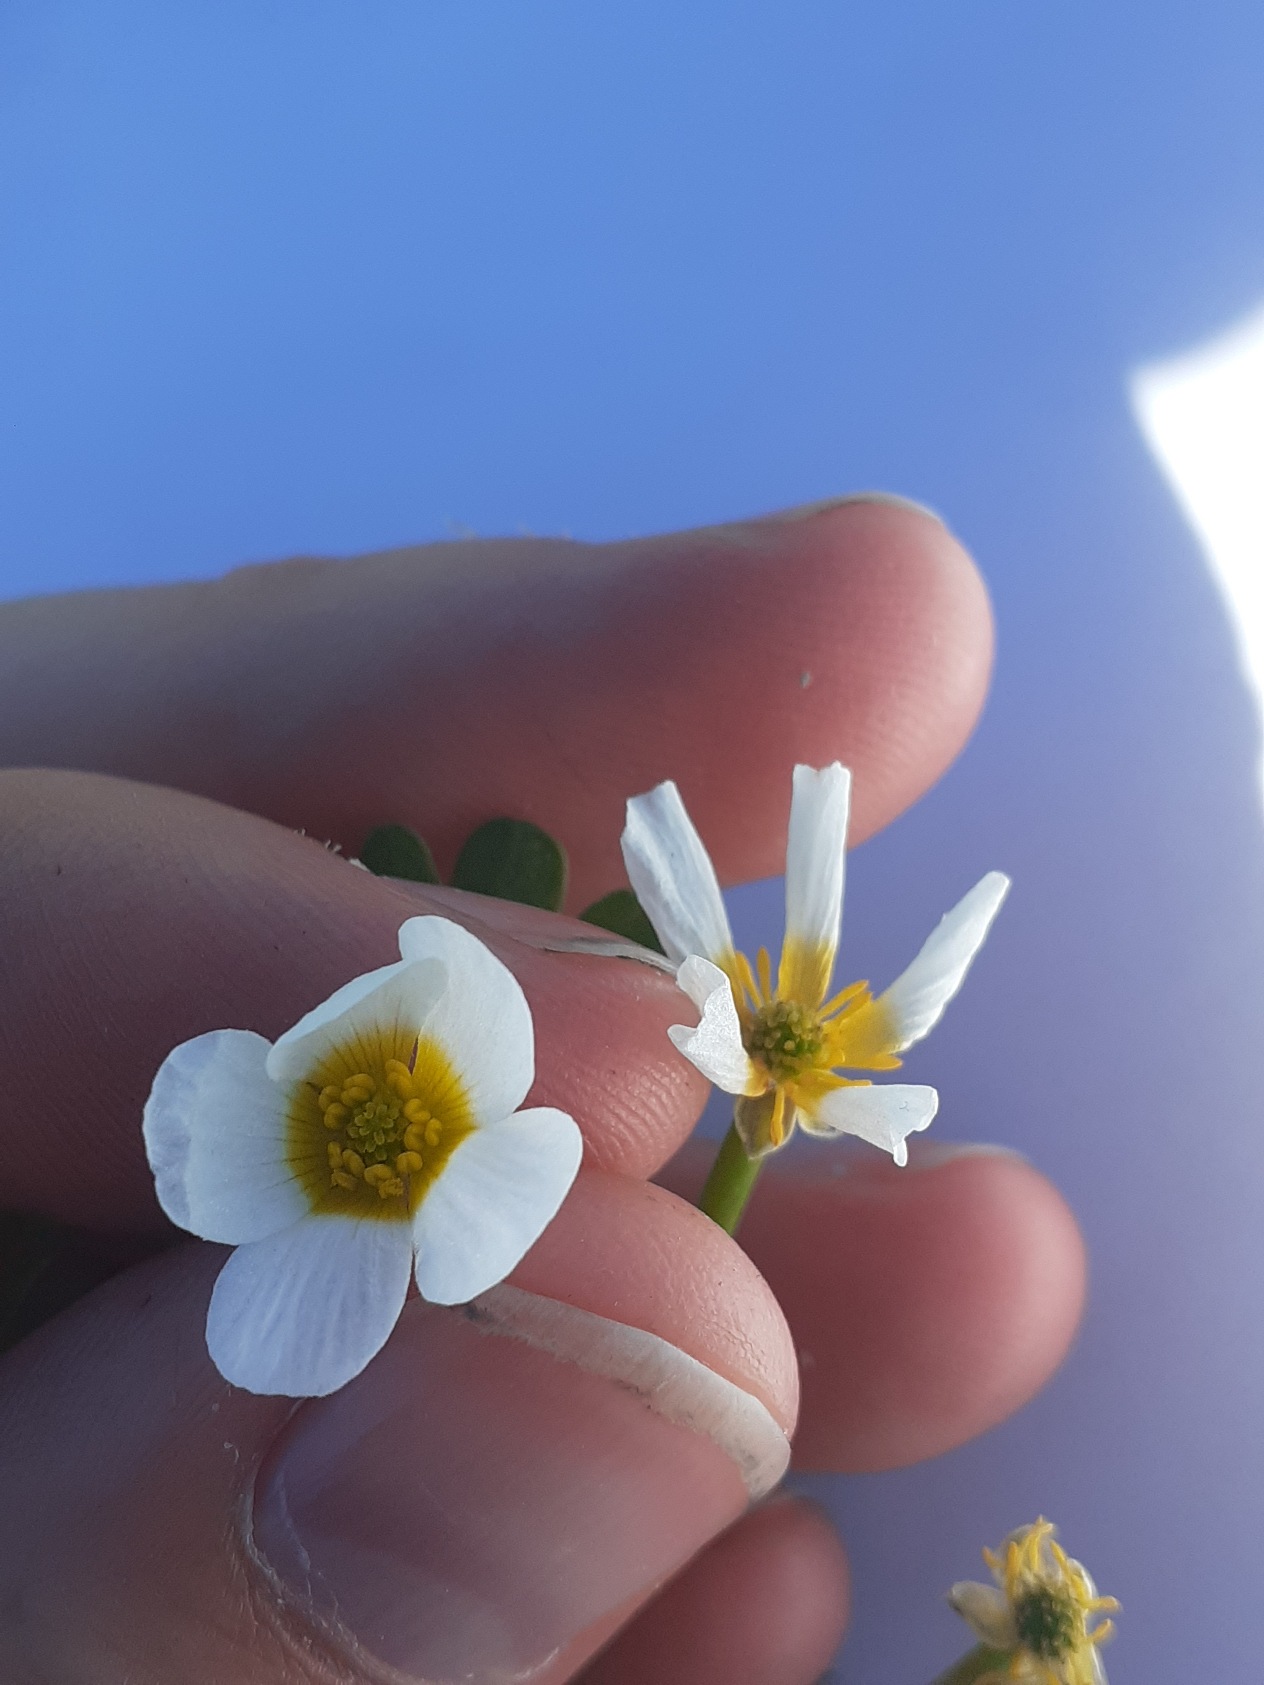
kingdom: Plantae
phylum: Tracheophyta
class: Magnoliopsida
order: Ranunculales
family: Ranunculaceae
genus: Ranunculus
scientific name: Ranunculus aquatilis
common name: Almindelig vandranunkel
